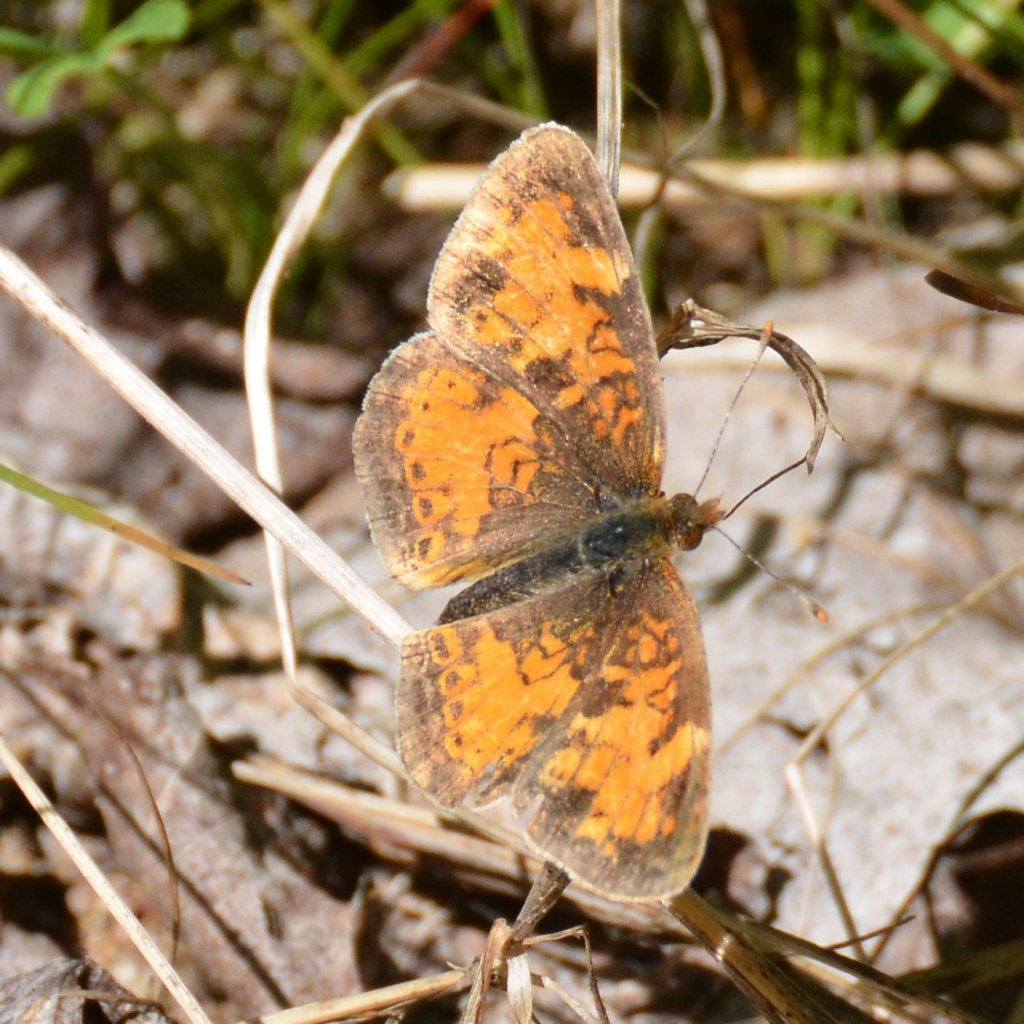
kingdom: Animalia
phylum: Arthropoda
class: Insecta
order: Lepidoptera
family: Nymphalidae
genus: Phyciodes
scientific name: Phyciodes tharos
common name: Northern Crescent
